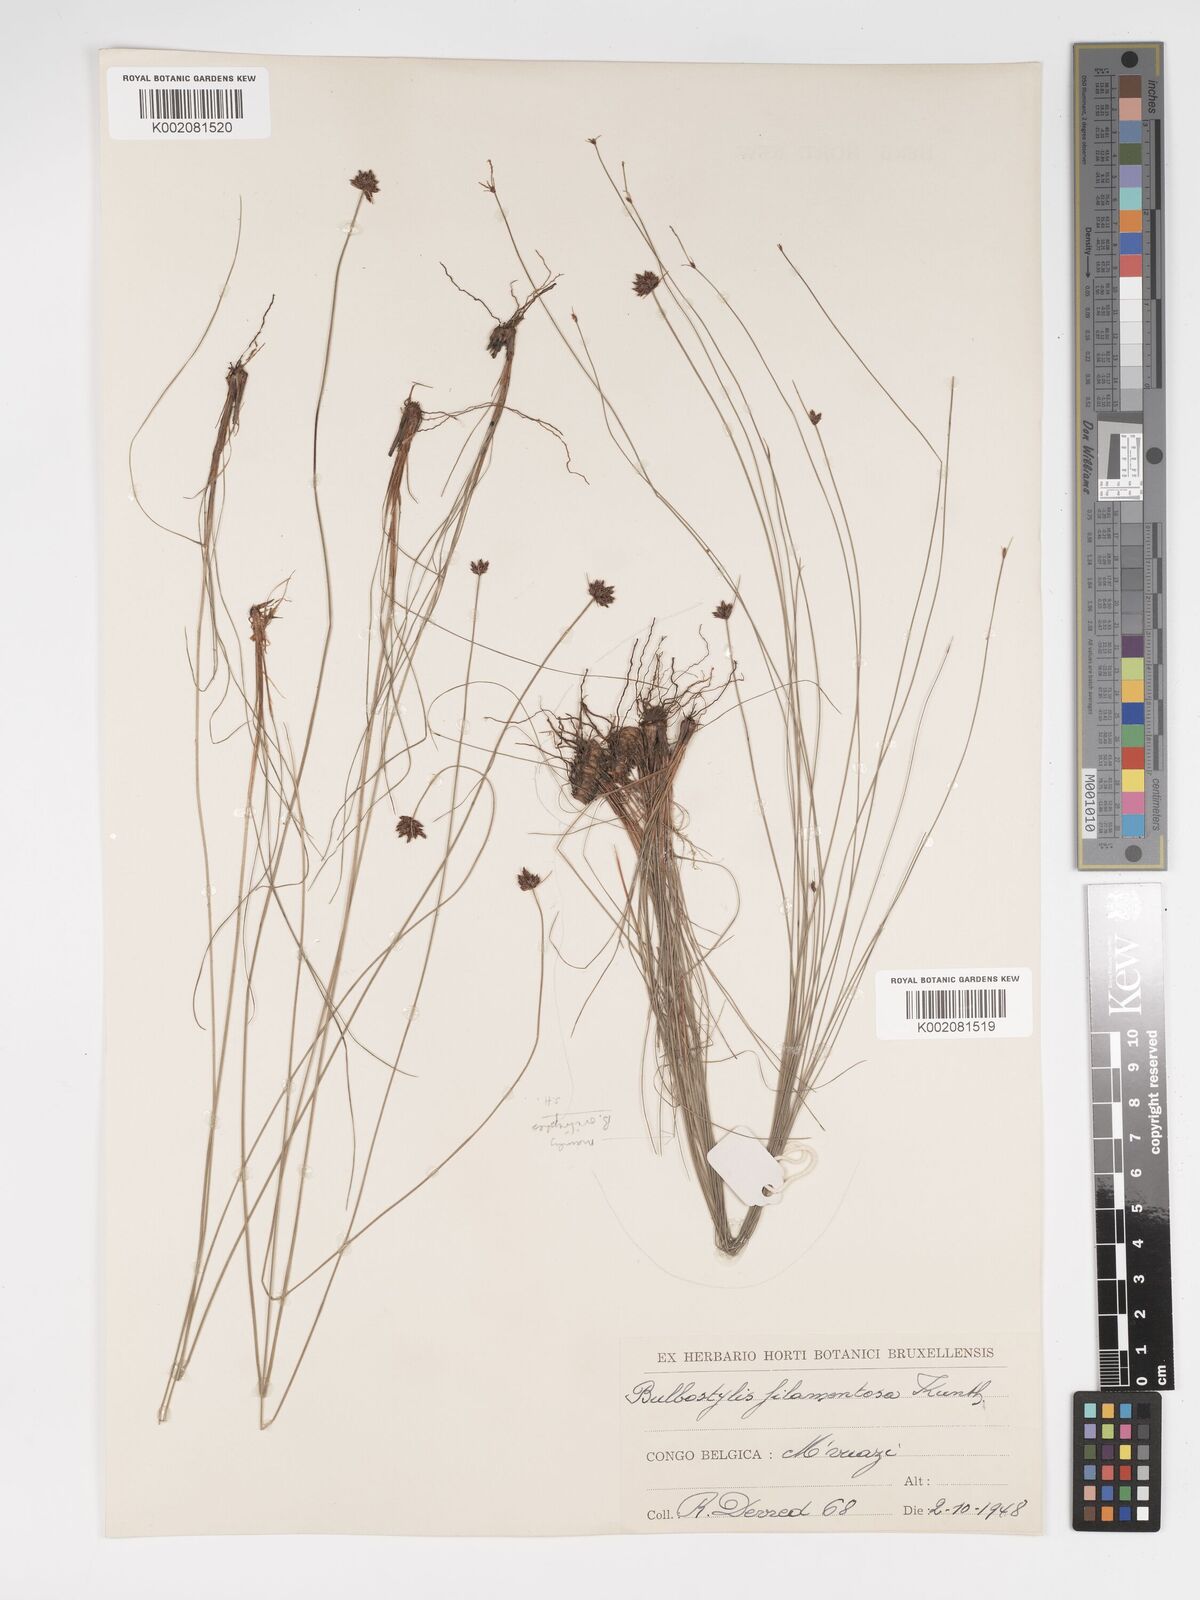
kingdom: Plantae
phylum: Tracheophyta
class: Liliopsida
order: Poales
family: Cyperaceae
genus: Bulbostylis
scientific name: Bulbostylis scabricaulis
